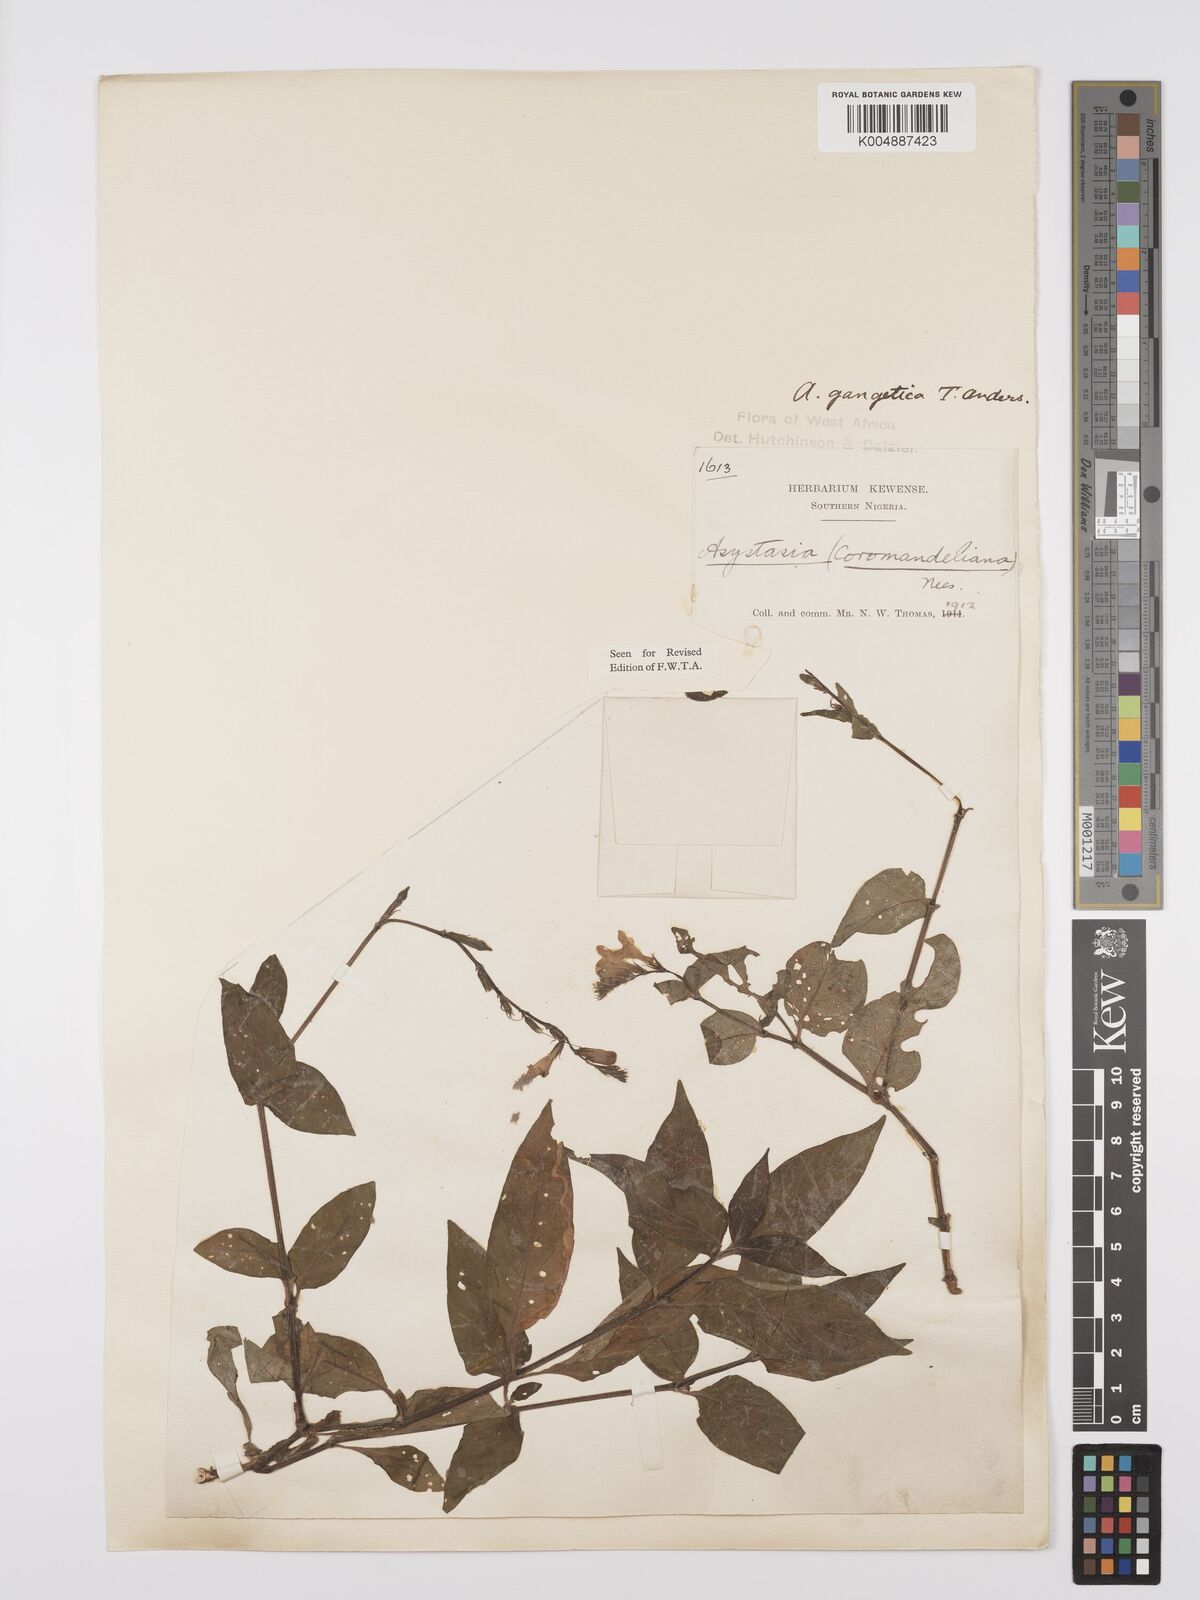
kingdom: Plantae
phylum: Tracheophyta
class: Magnoliopsida
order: Lamiales
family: Acanthaceae
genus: Asystasia
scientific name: Asystasia gangetica
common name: Chinese violet
